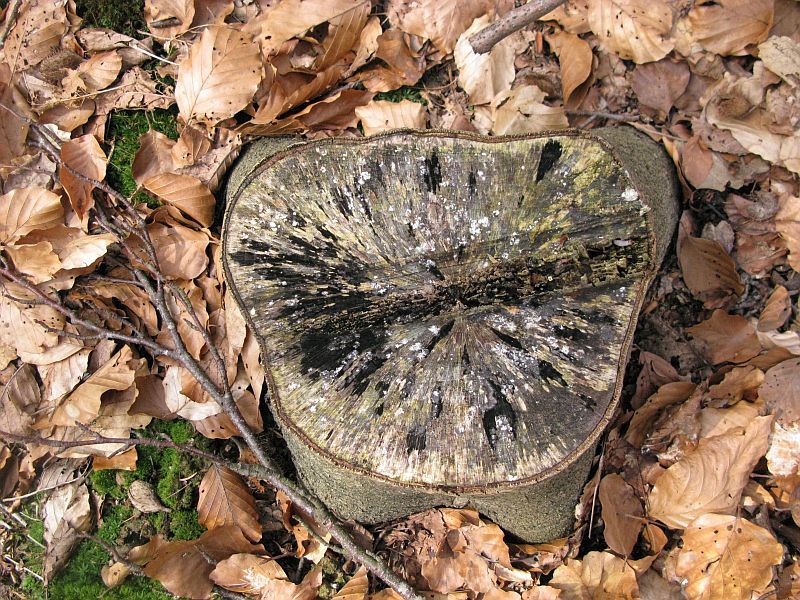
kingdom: Fungi
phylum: Ascomycota
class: Leotiomycetes
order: Helotiales
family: Helotiaceae
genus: Bispora
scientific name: Bispora pallescens
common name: måtte-snitskive
